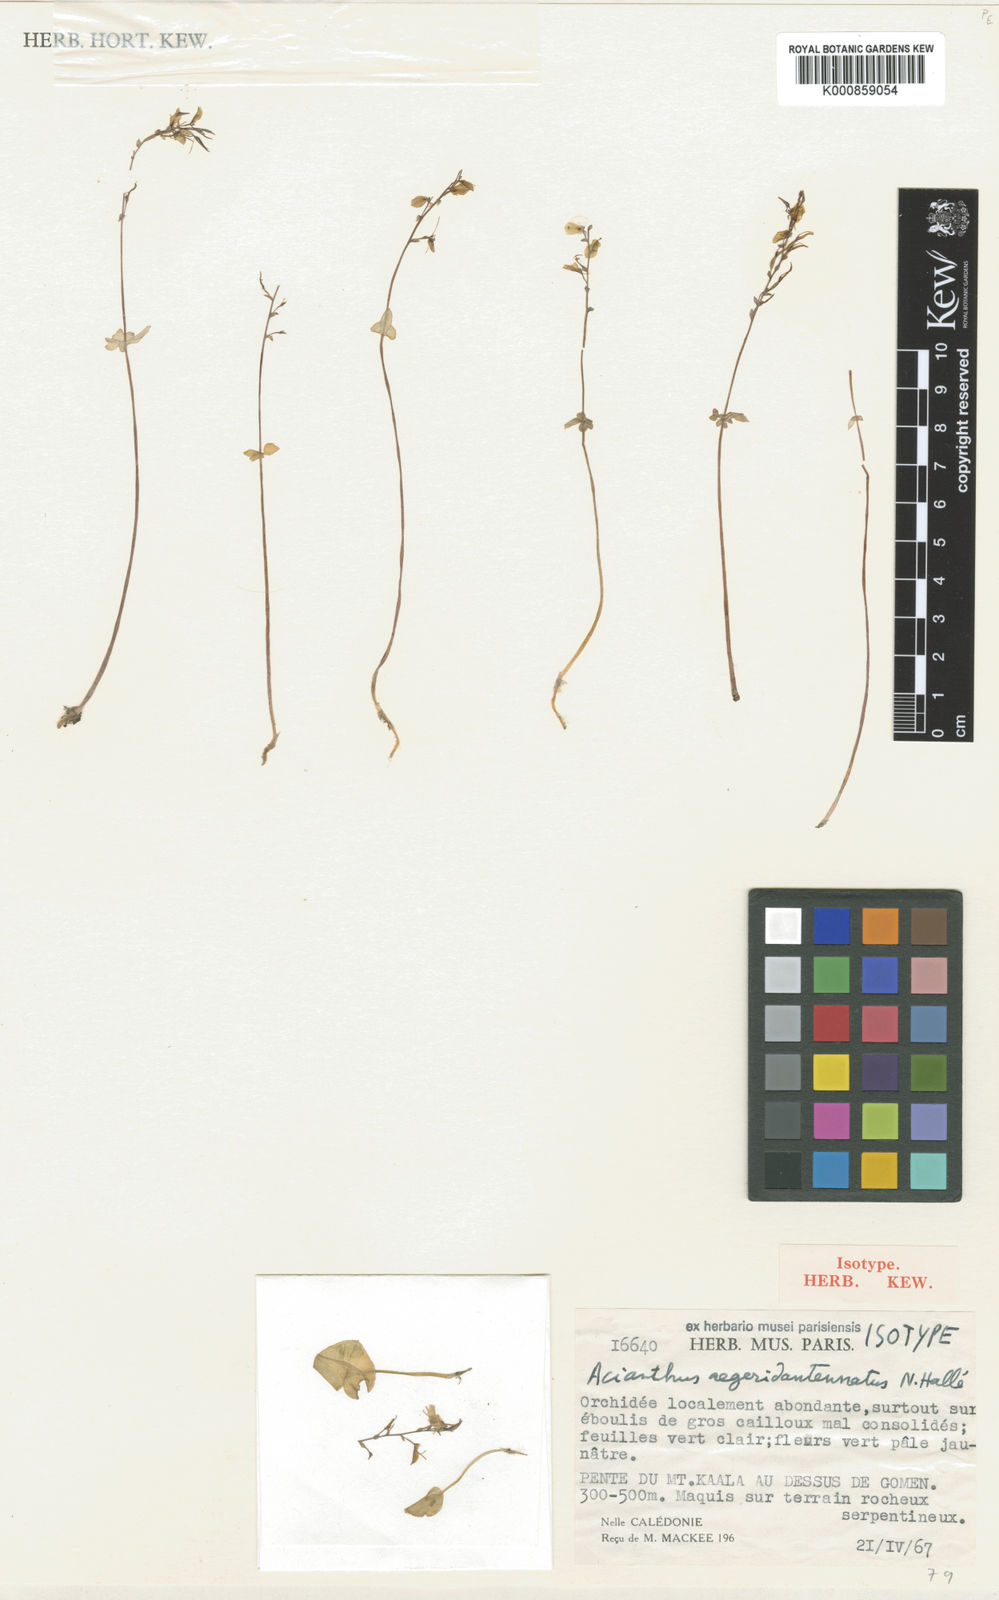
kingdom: Plantae
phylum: Tracheophyta
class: Liliopsida
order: Asparagales
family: Orchidaceae
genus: Acianthus
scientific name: Acianthus
